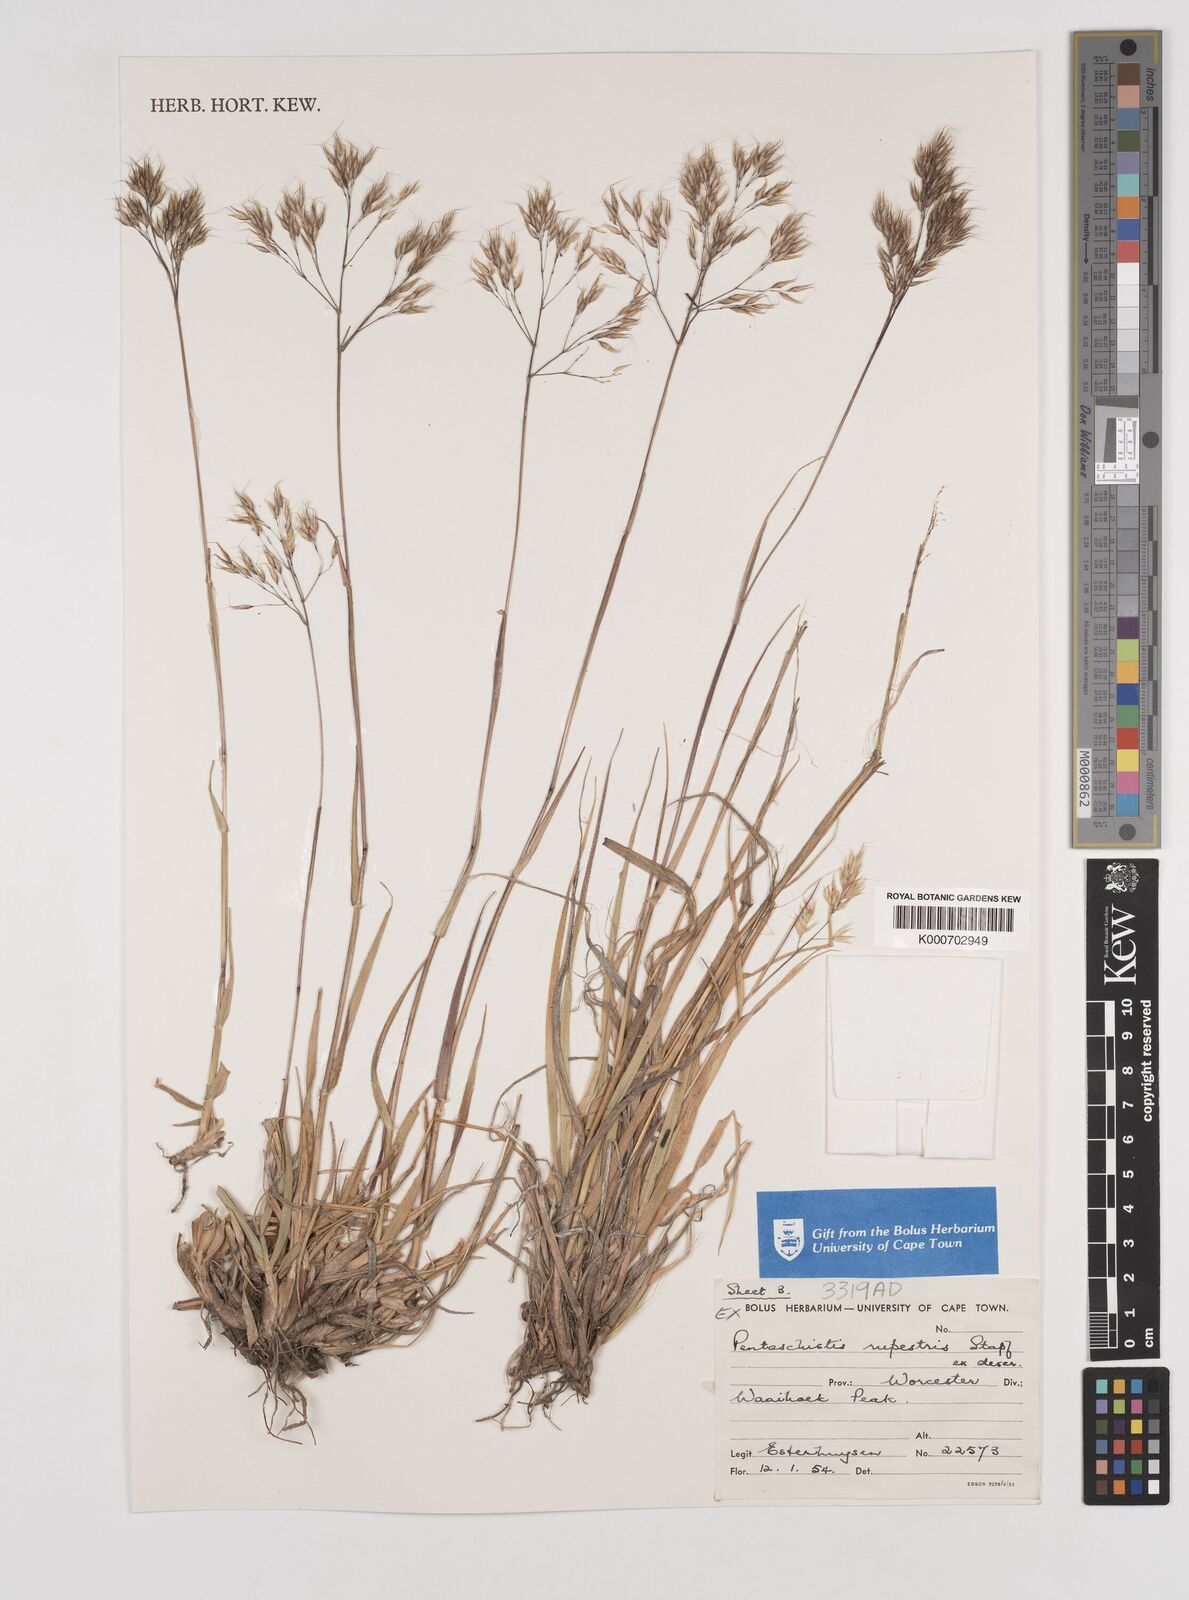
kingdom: Plantae
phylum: Tracheophyta
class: Liliopsida
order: Poales
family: Poaceae
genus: Pentameris
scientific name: Pentameris rupestris
